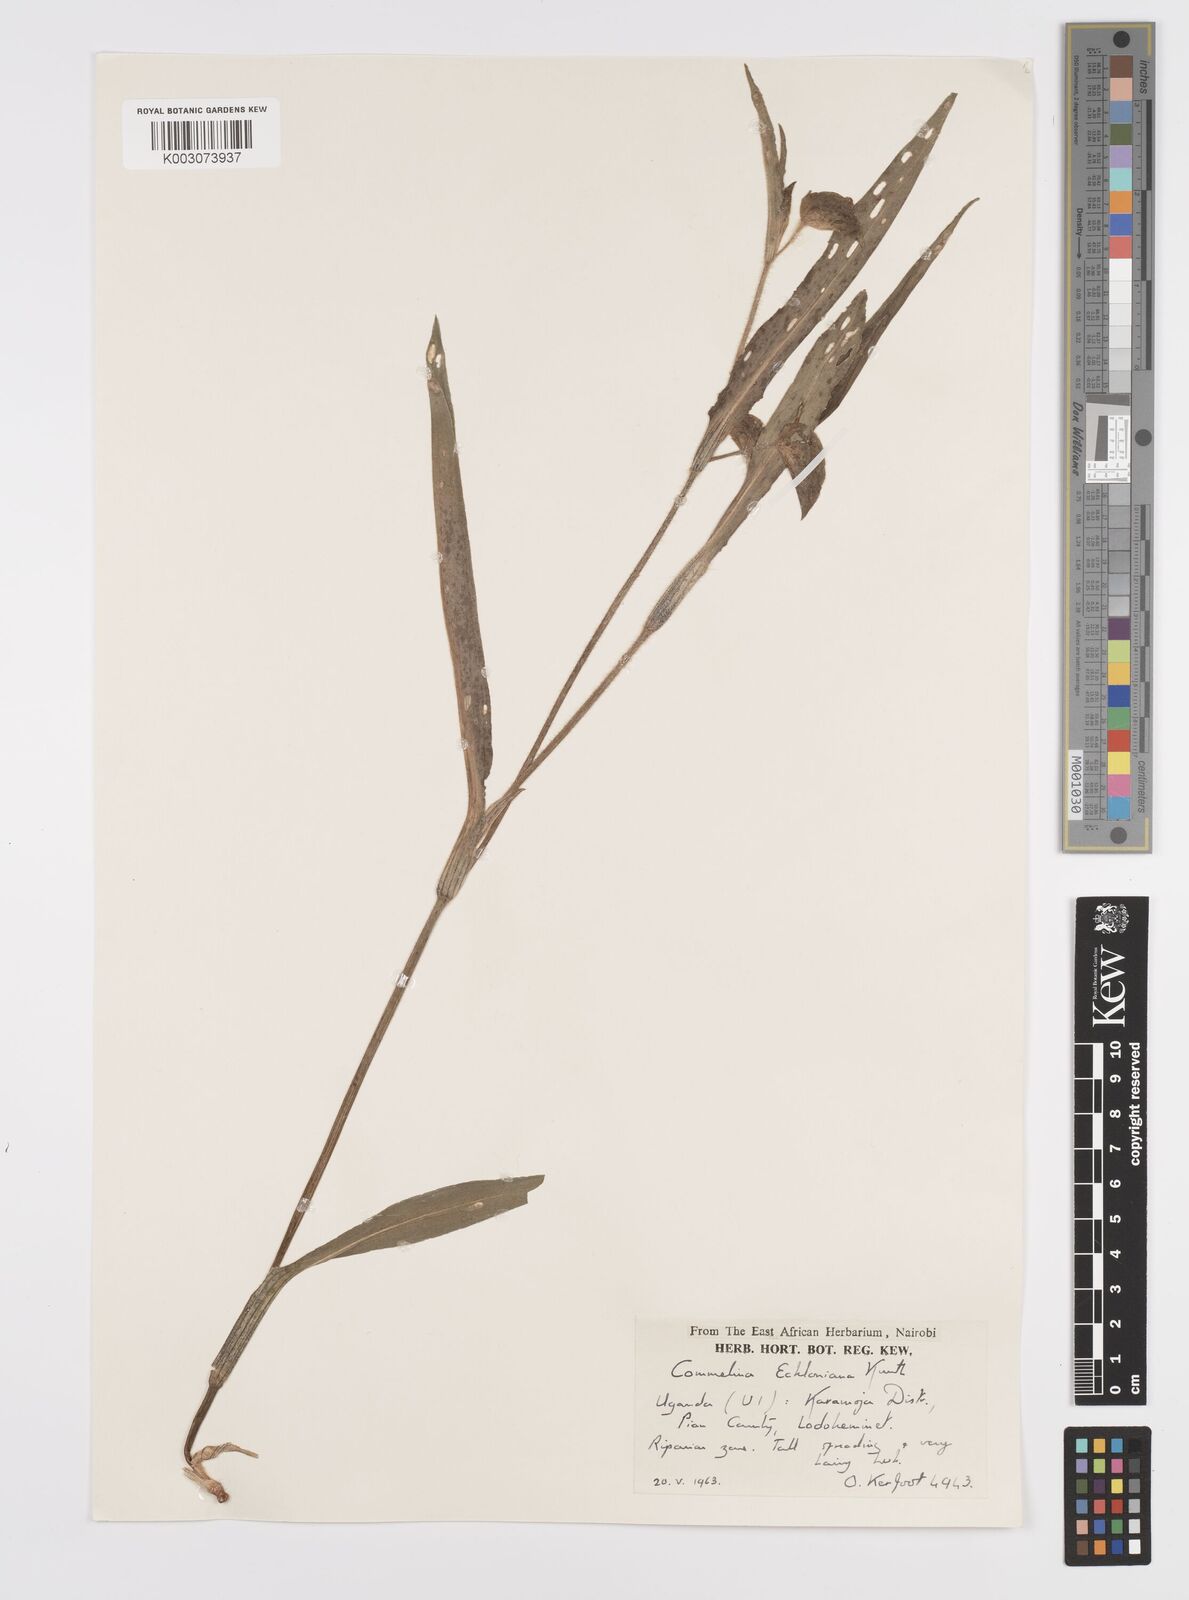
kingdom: Plantae
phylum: Tracheophyta
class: Liliopsida
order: Commelinales
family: Commelinaceae
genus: Commelina
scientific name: Commelina eckloniana
